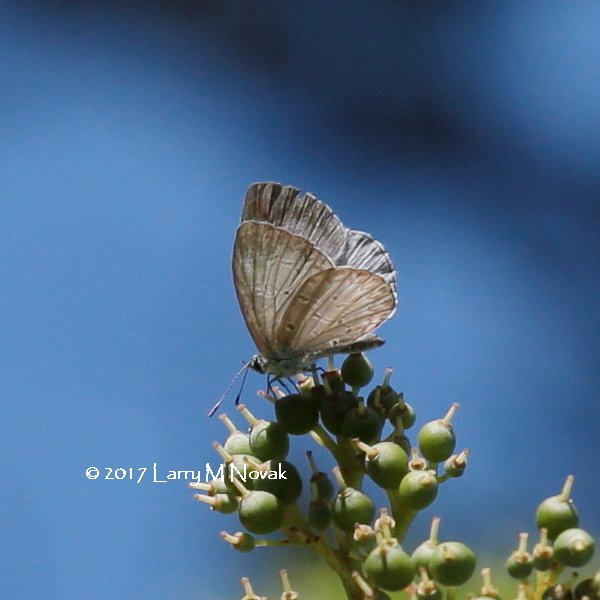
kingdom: Animalia
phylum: Arthropoda
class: Insecta
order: Lepidoptera
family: Lycaenidae
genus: Celastrina
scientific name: Celastrina lucia
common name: Northern Spring Azure
